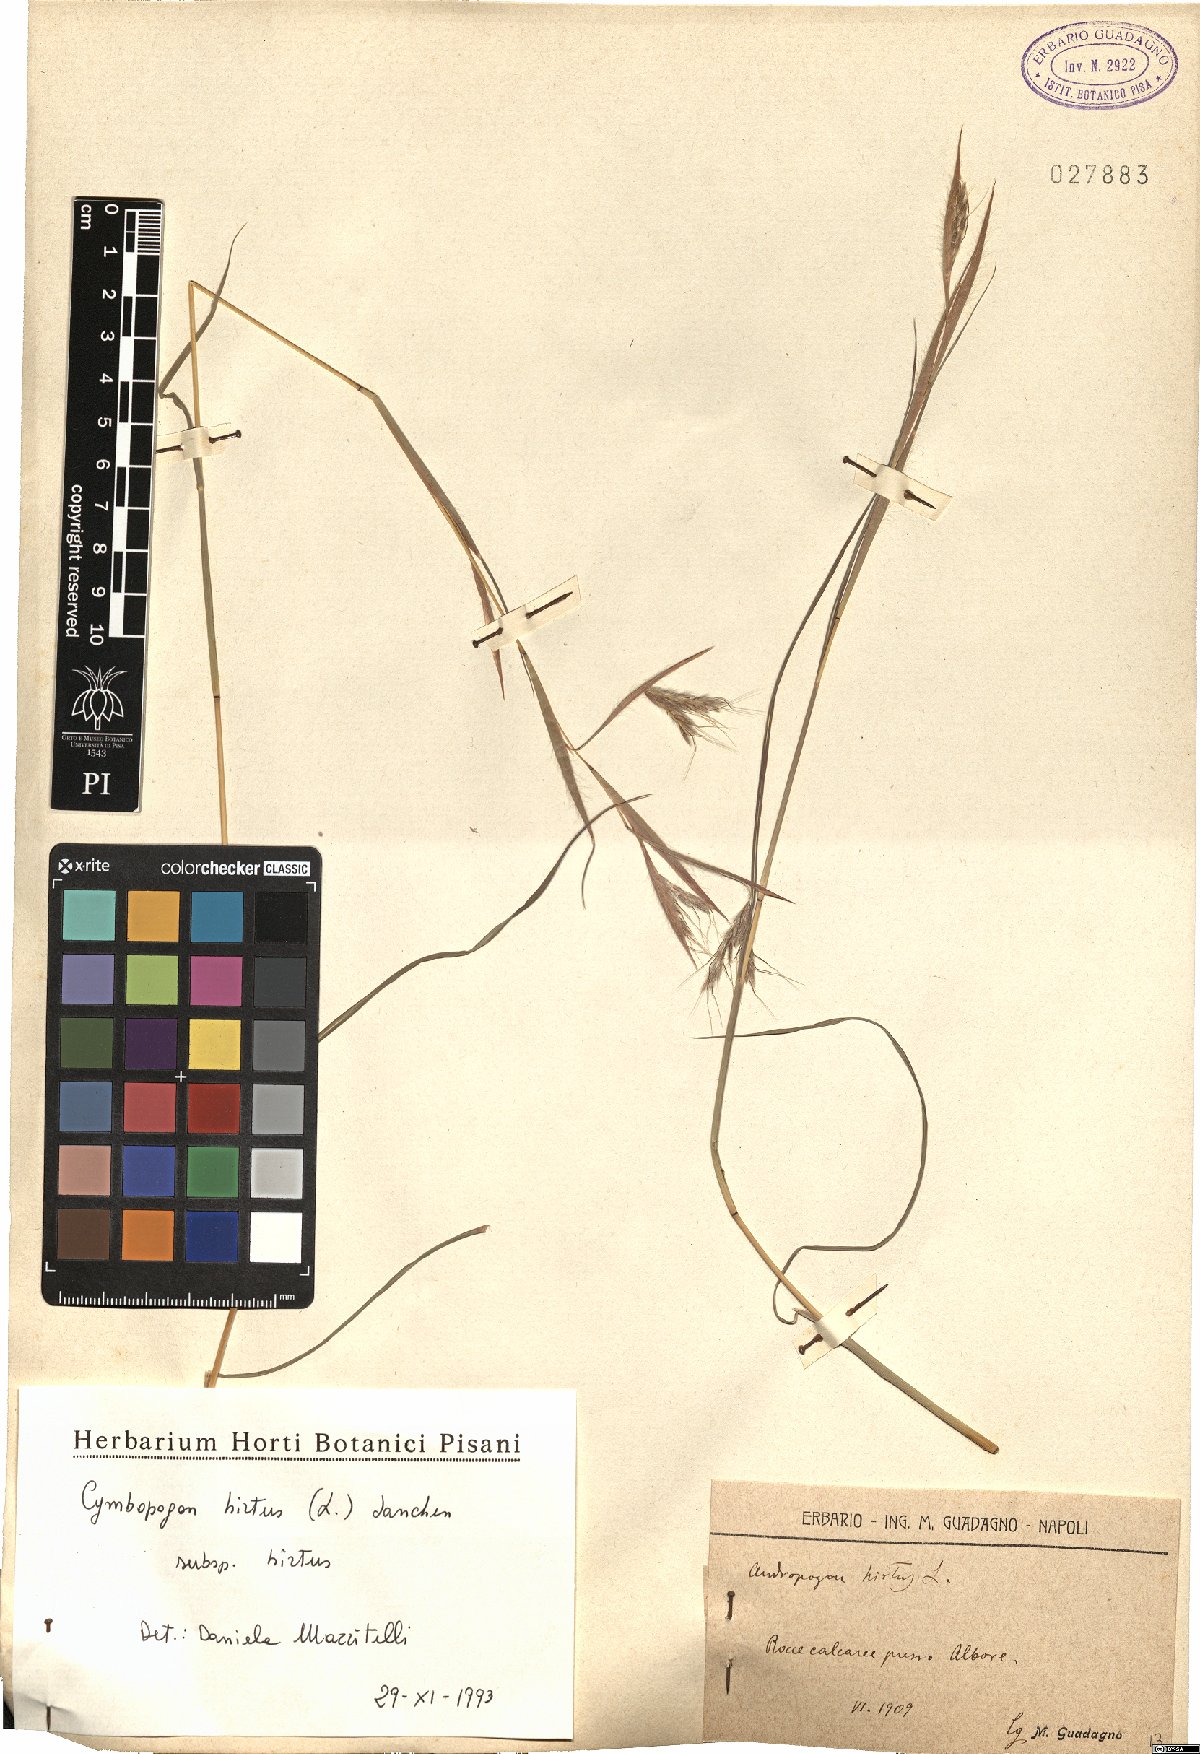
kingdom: Plantae
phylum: Tracheophyta
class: Liliopsida
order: Poales
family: Poaceae
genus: Cymbopogon
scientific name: Cymbopogon hirtus
